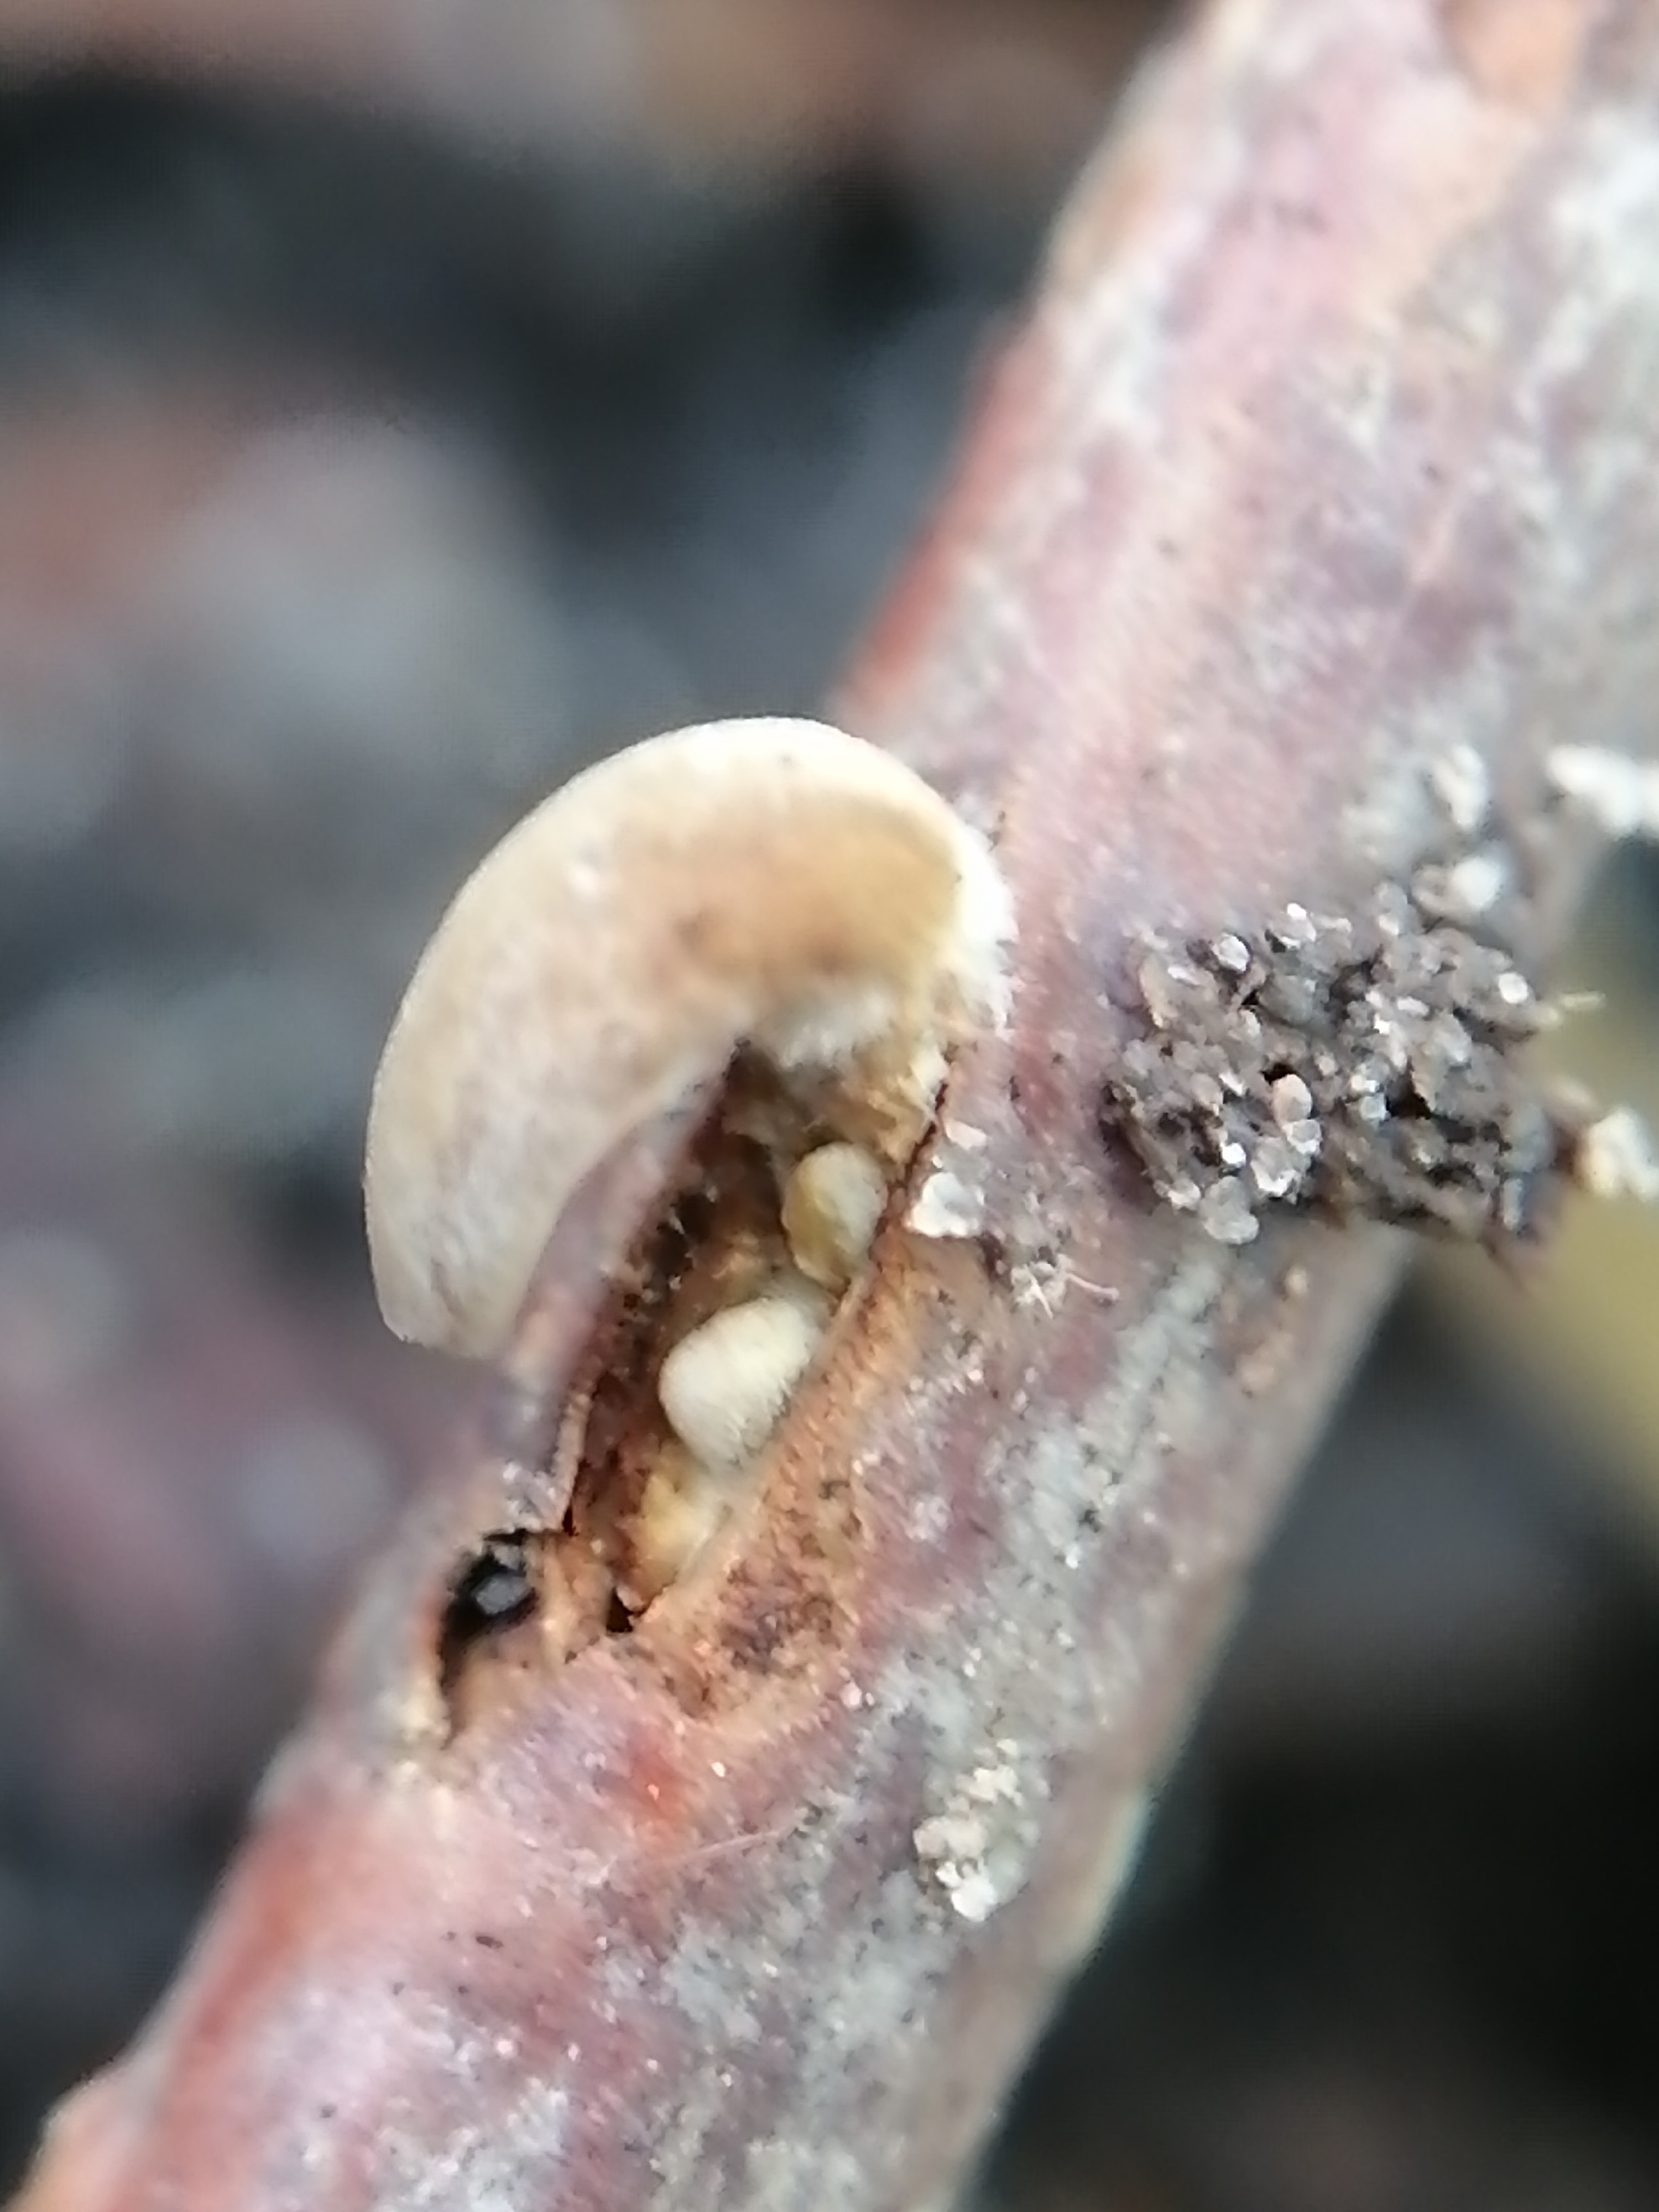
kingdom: Fungi
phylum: Basidiomycota
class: Agaricomycetes
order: Agaricales
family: Typhulaceae
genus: Typhula
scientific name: Typhula contorta
